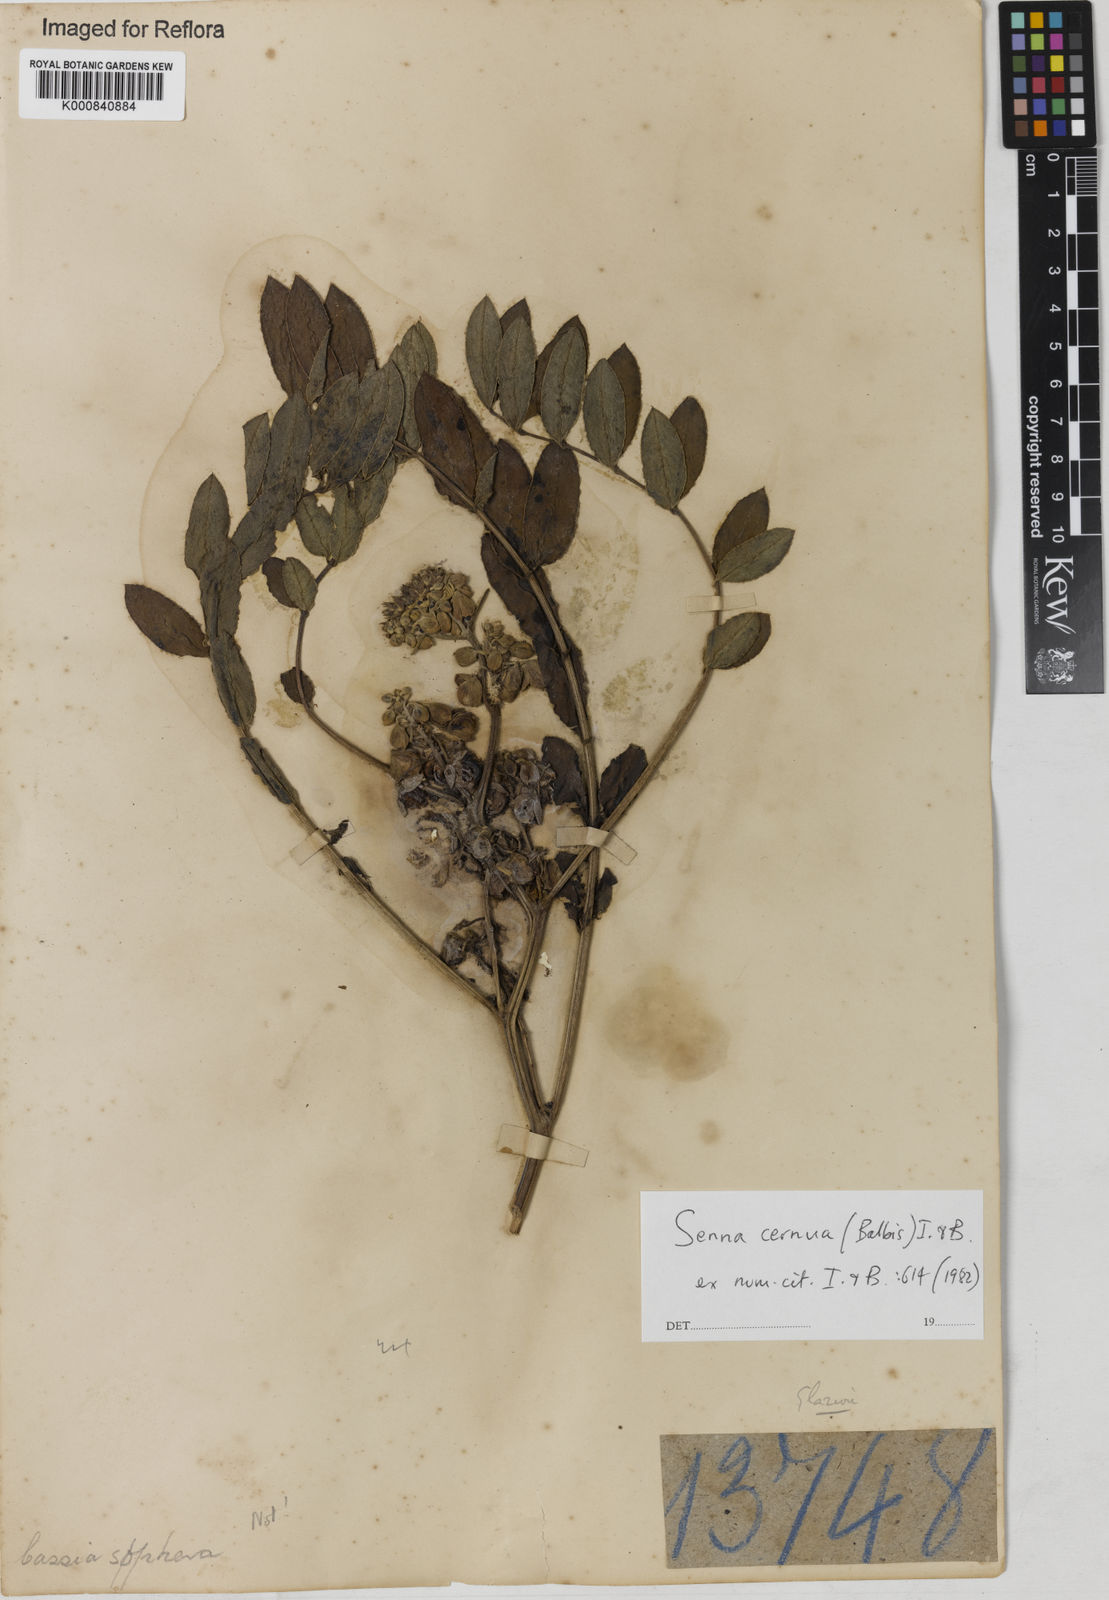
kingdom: Plantae
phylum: Tracheophyta
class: Magnoliopsida
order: Fabales
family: Fabaceae
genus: Senna
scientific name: Senna cernua
